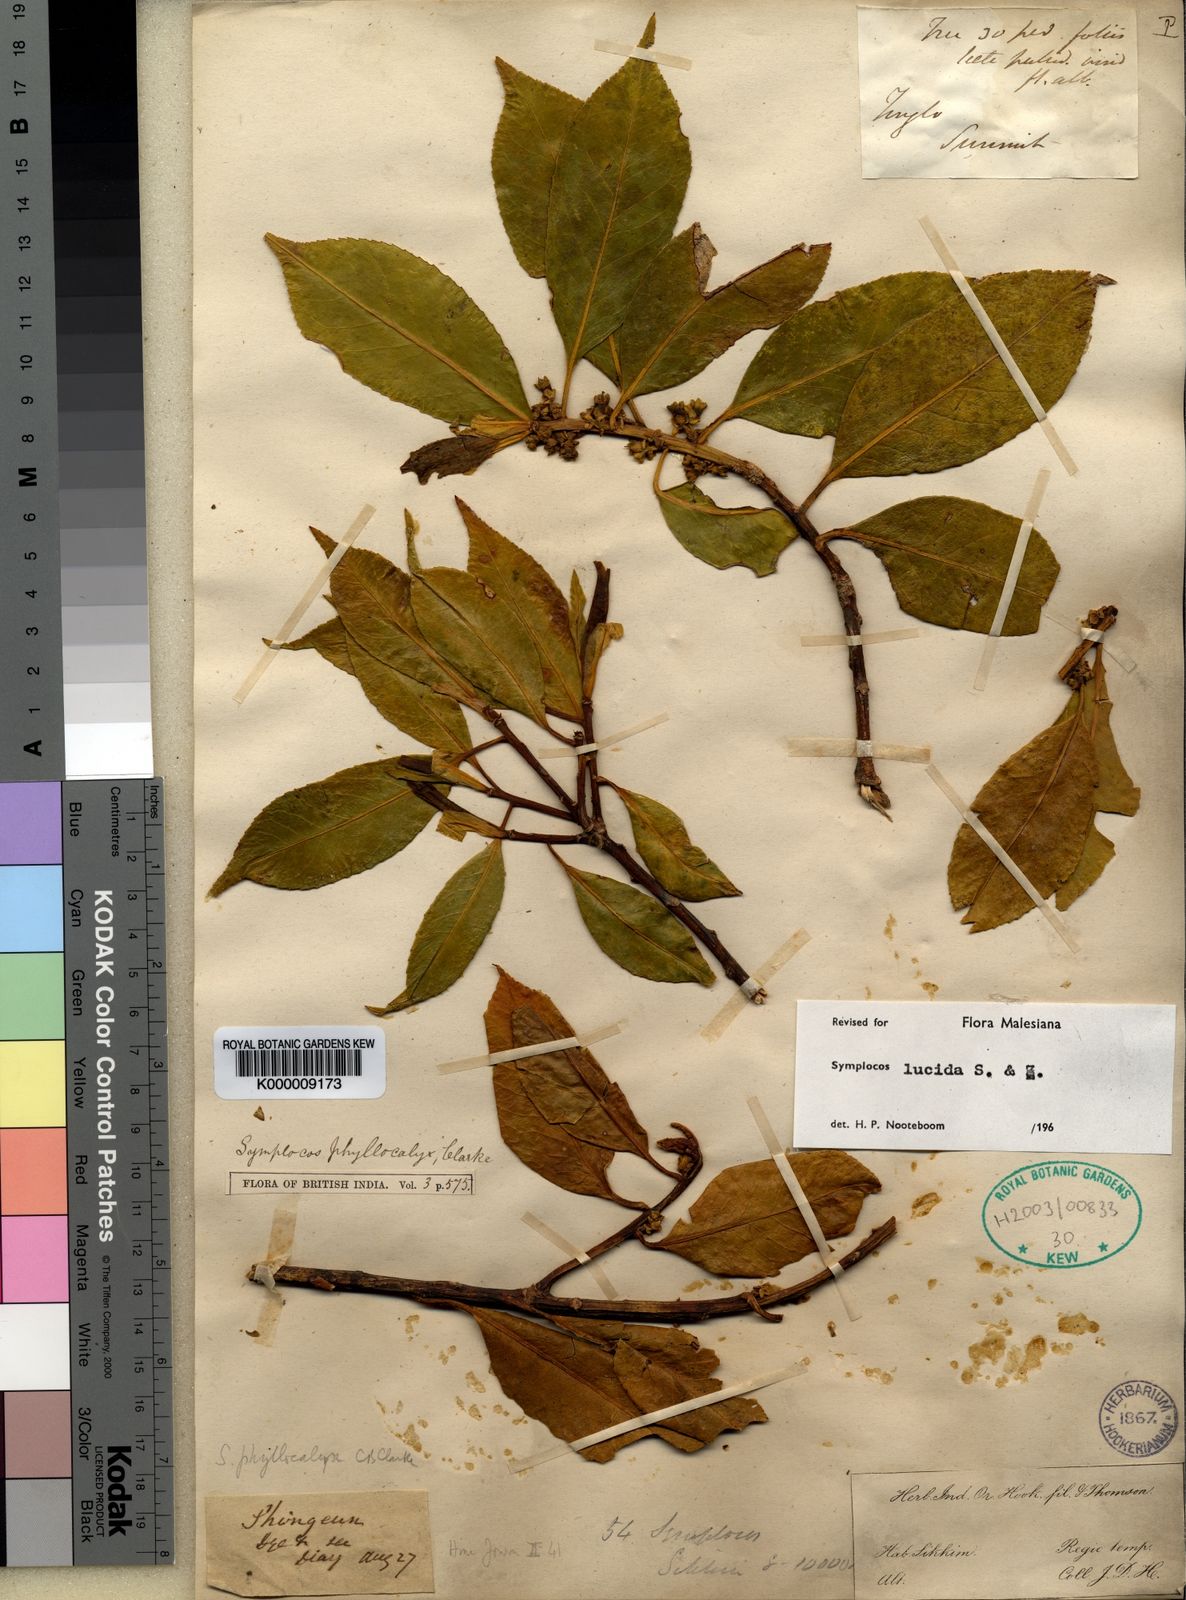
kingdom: Plantae
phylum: Tracheophyta
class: Magnoliopsida
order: Ericales
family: Symplocaceae
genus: Symplocos
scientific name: Symplocos
